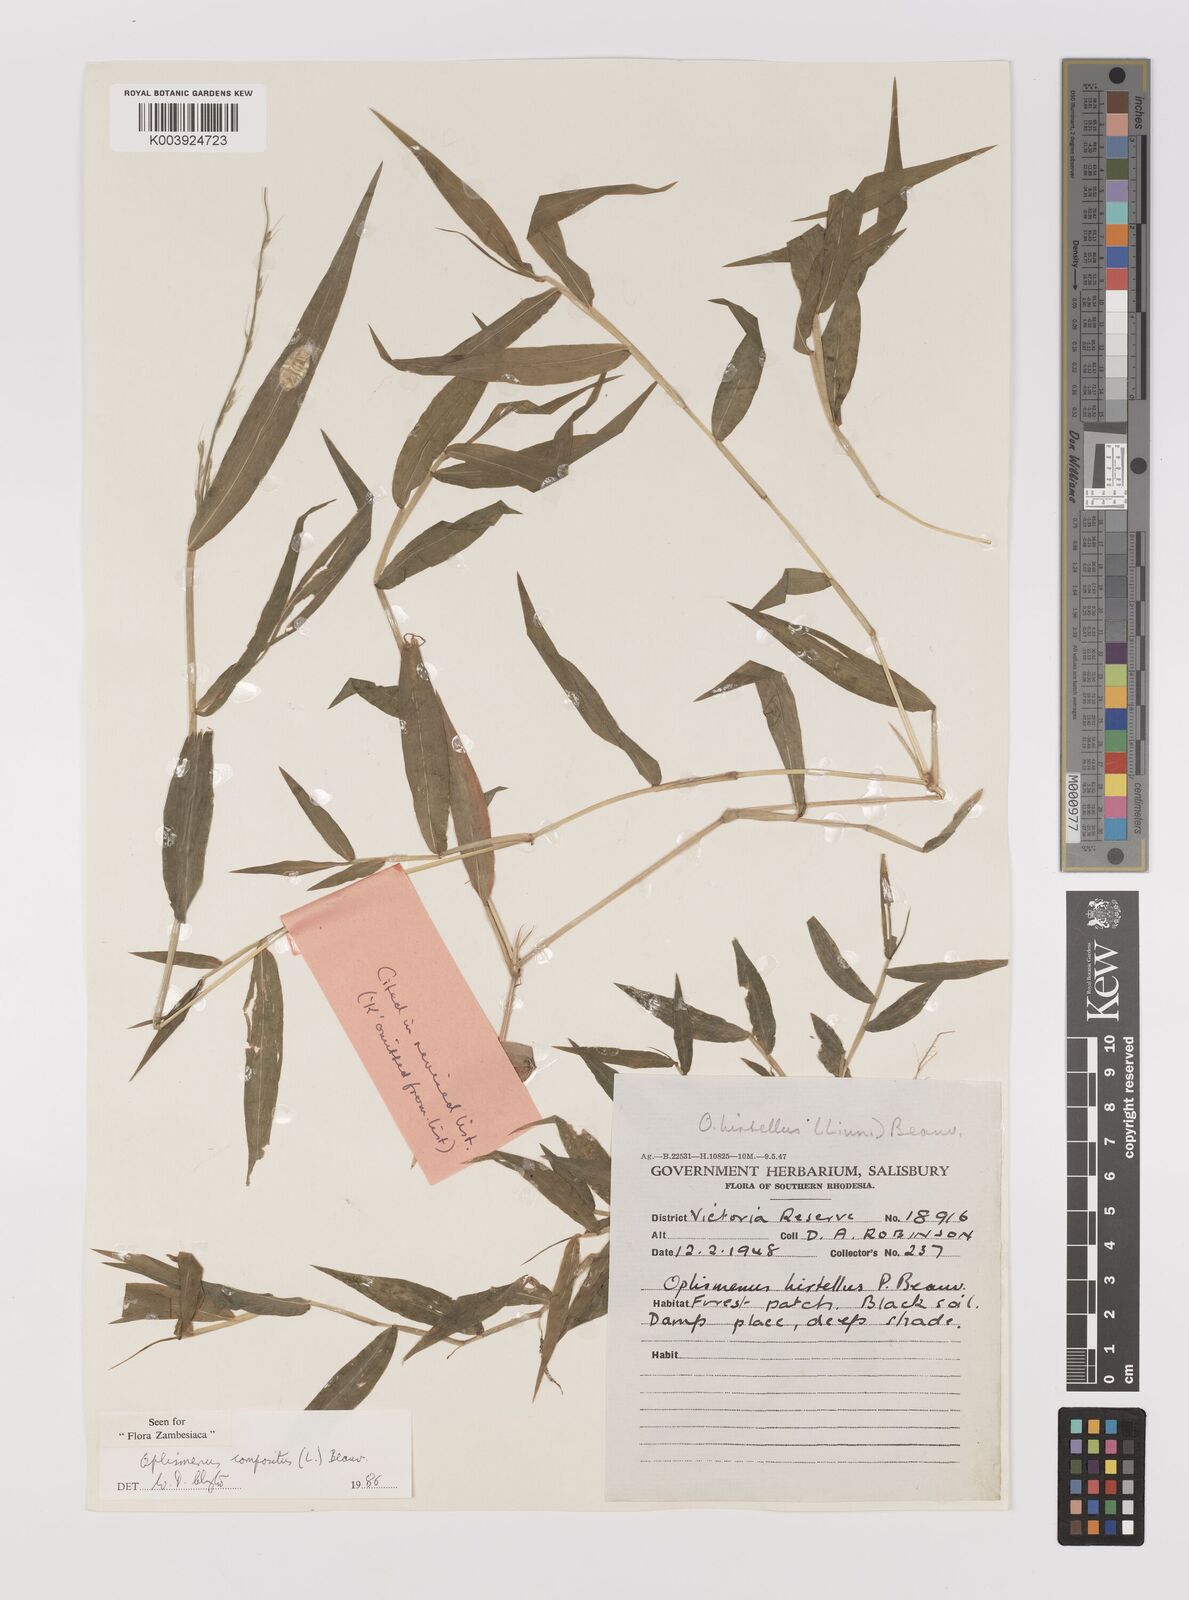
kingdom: Plantae
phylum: Tracheophyta
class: Liliopsida
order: Poales
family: Poaceae
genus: Oplismenus
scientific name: Oplismenus compositus
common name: Running mountain grass
